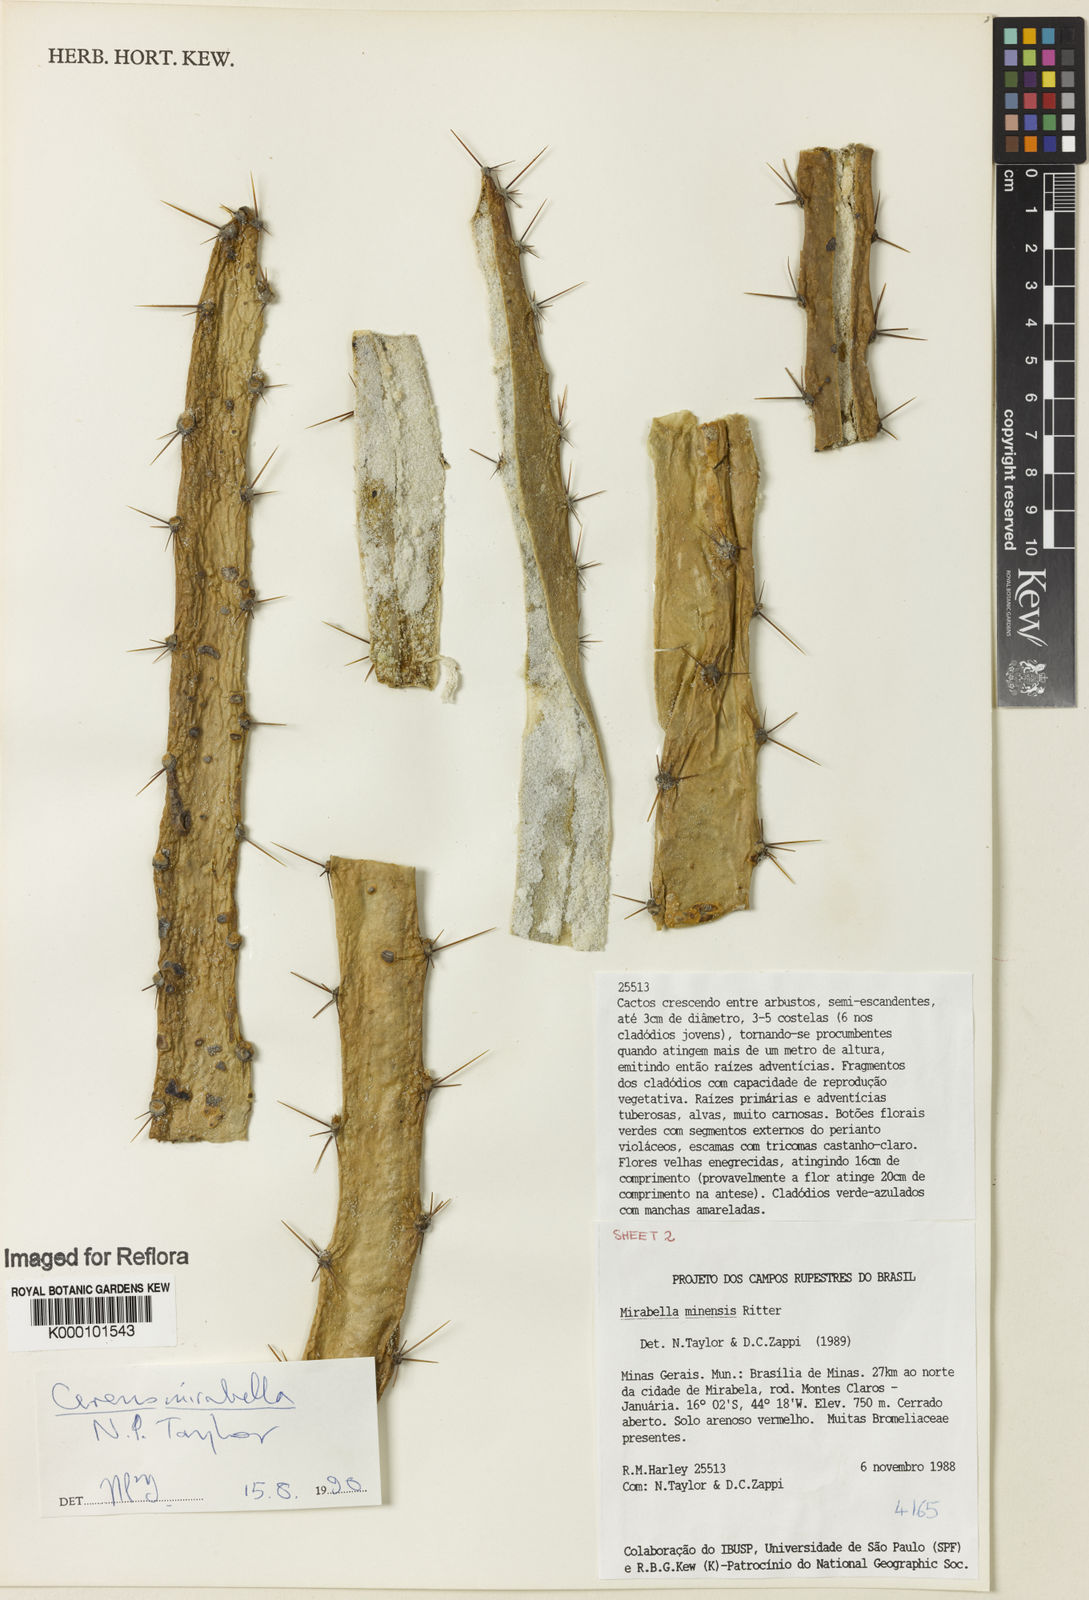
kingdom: Plantae
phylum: Tracheophyta
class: Magnoliopsida
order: Caryophyllales
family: Cactaceae
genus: Cereus
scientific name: Cereus mirabella
